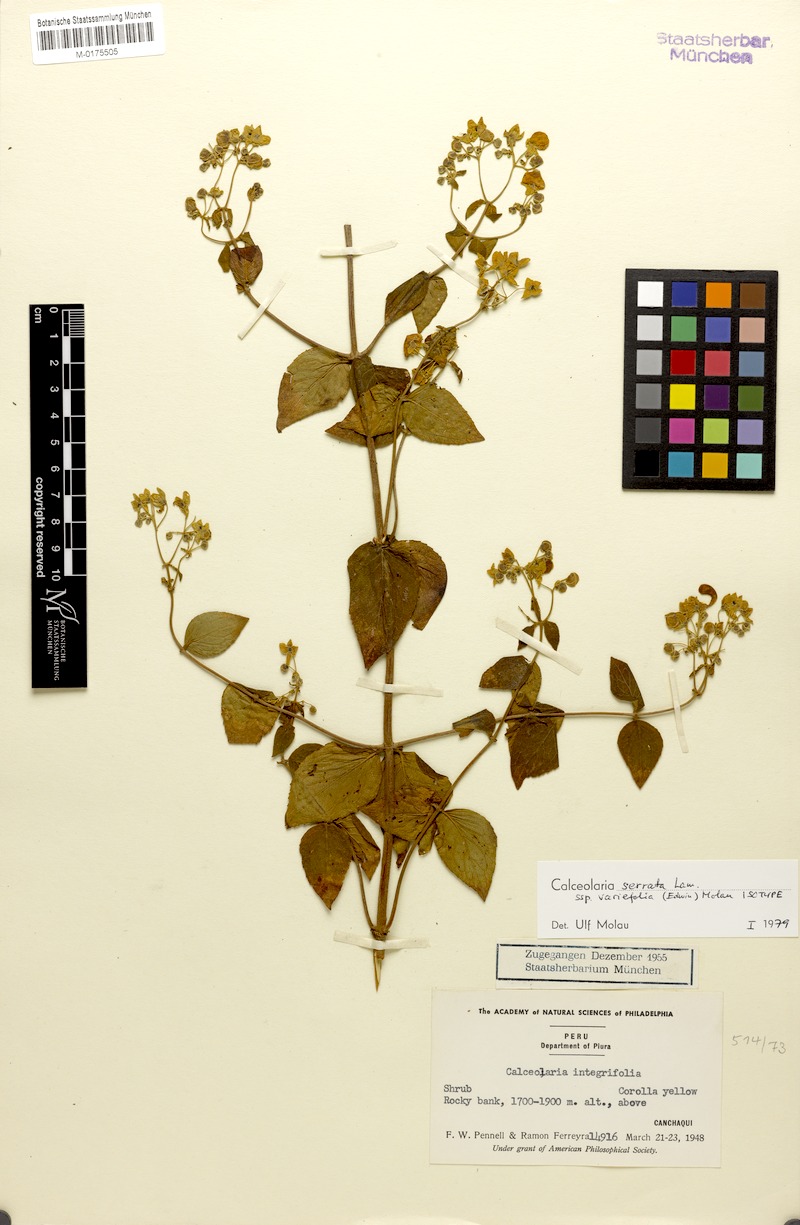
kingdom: Plantae
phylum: Tracheophyta
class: Magnoliopsida
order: Lamiales
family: Calceolariaceae
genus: Calceolaria
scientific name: Calceolaria serrata
